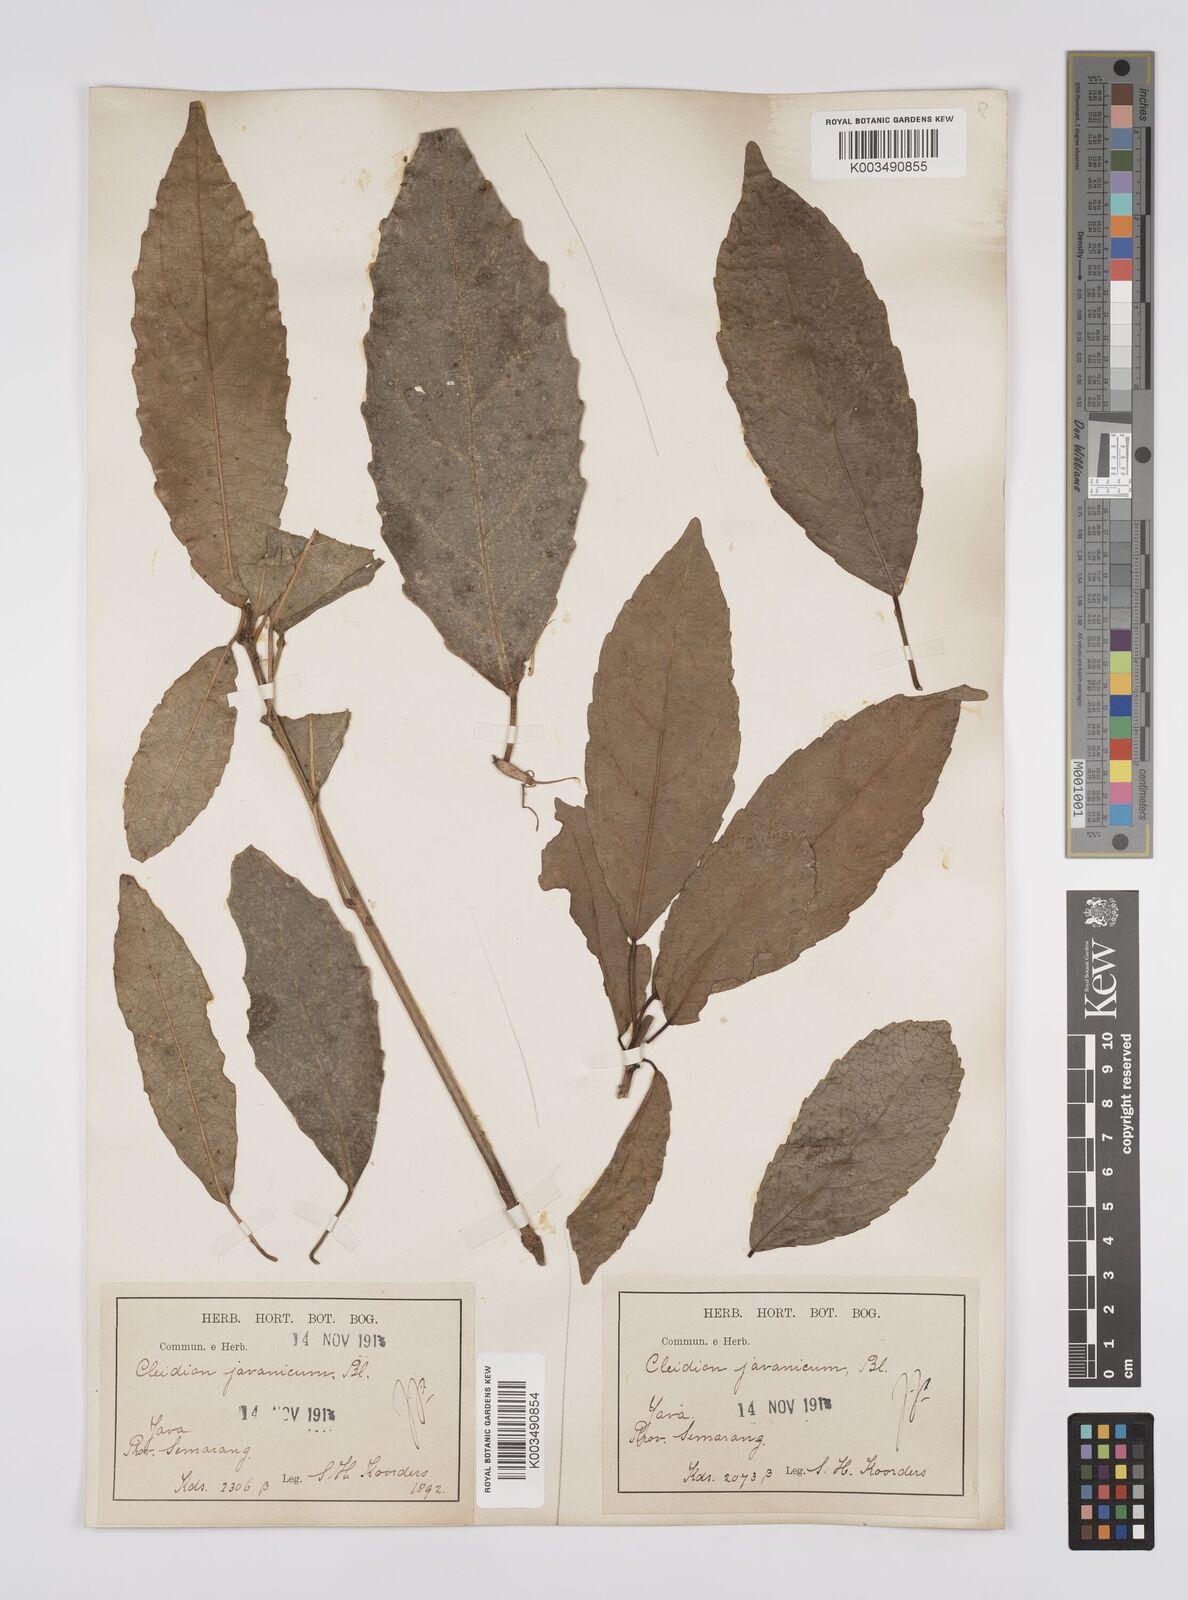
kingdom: Plantae
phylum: Tracheophyta
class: Magnoliopsida
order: Malpighiales
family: Euphorbiaceae
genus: Acalypha
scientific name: Acalypha spiciflora
